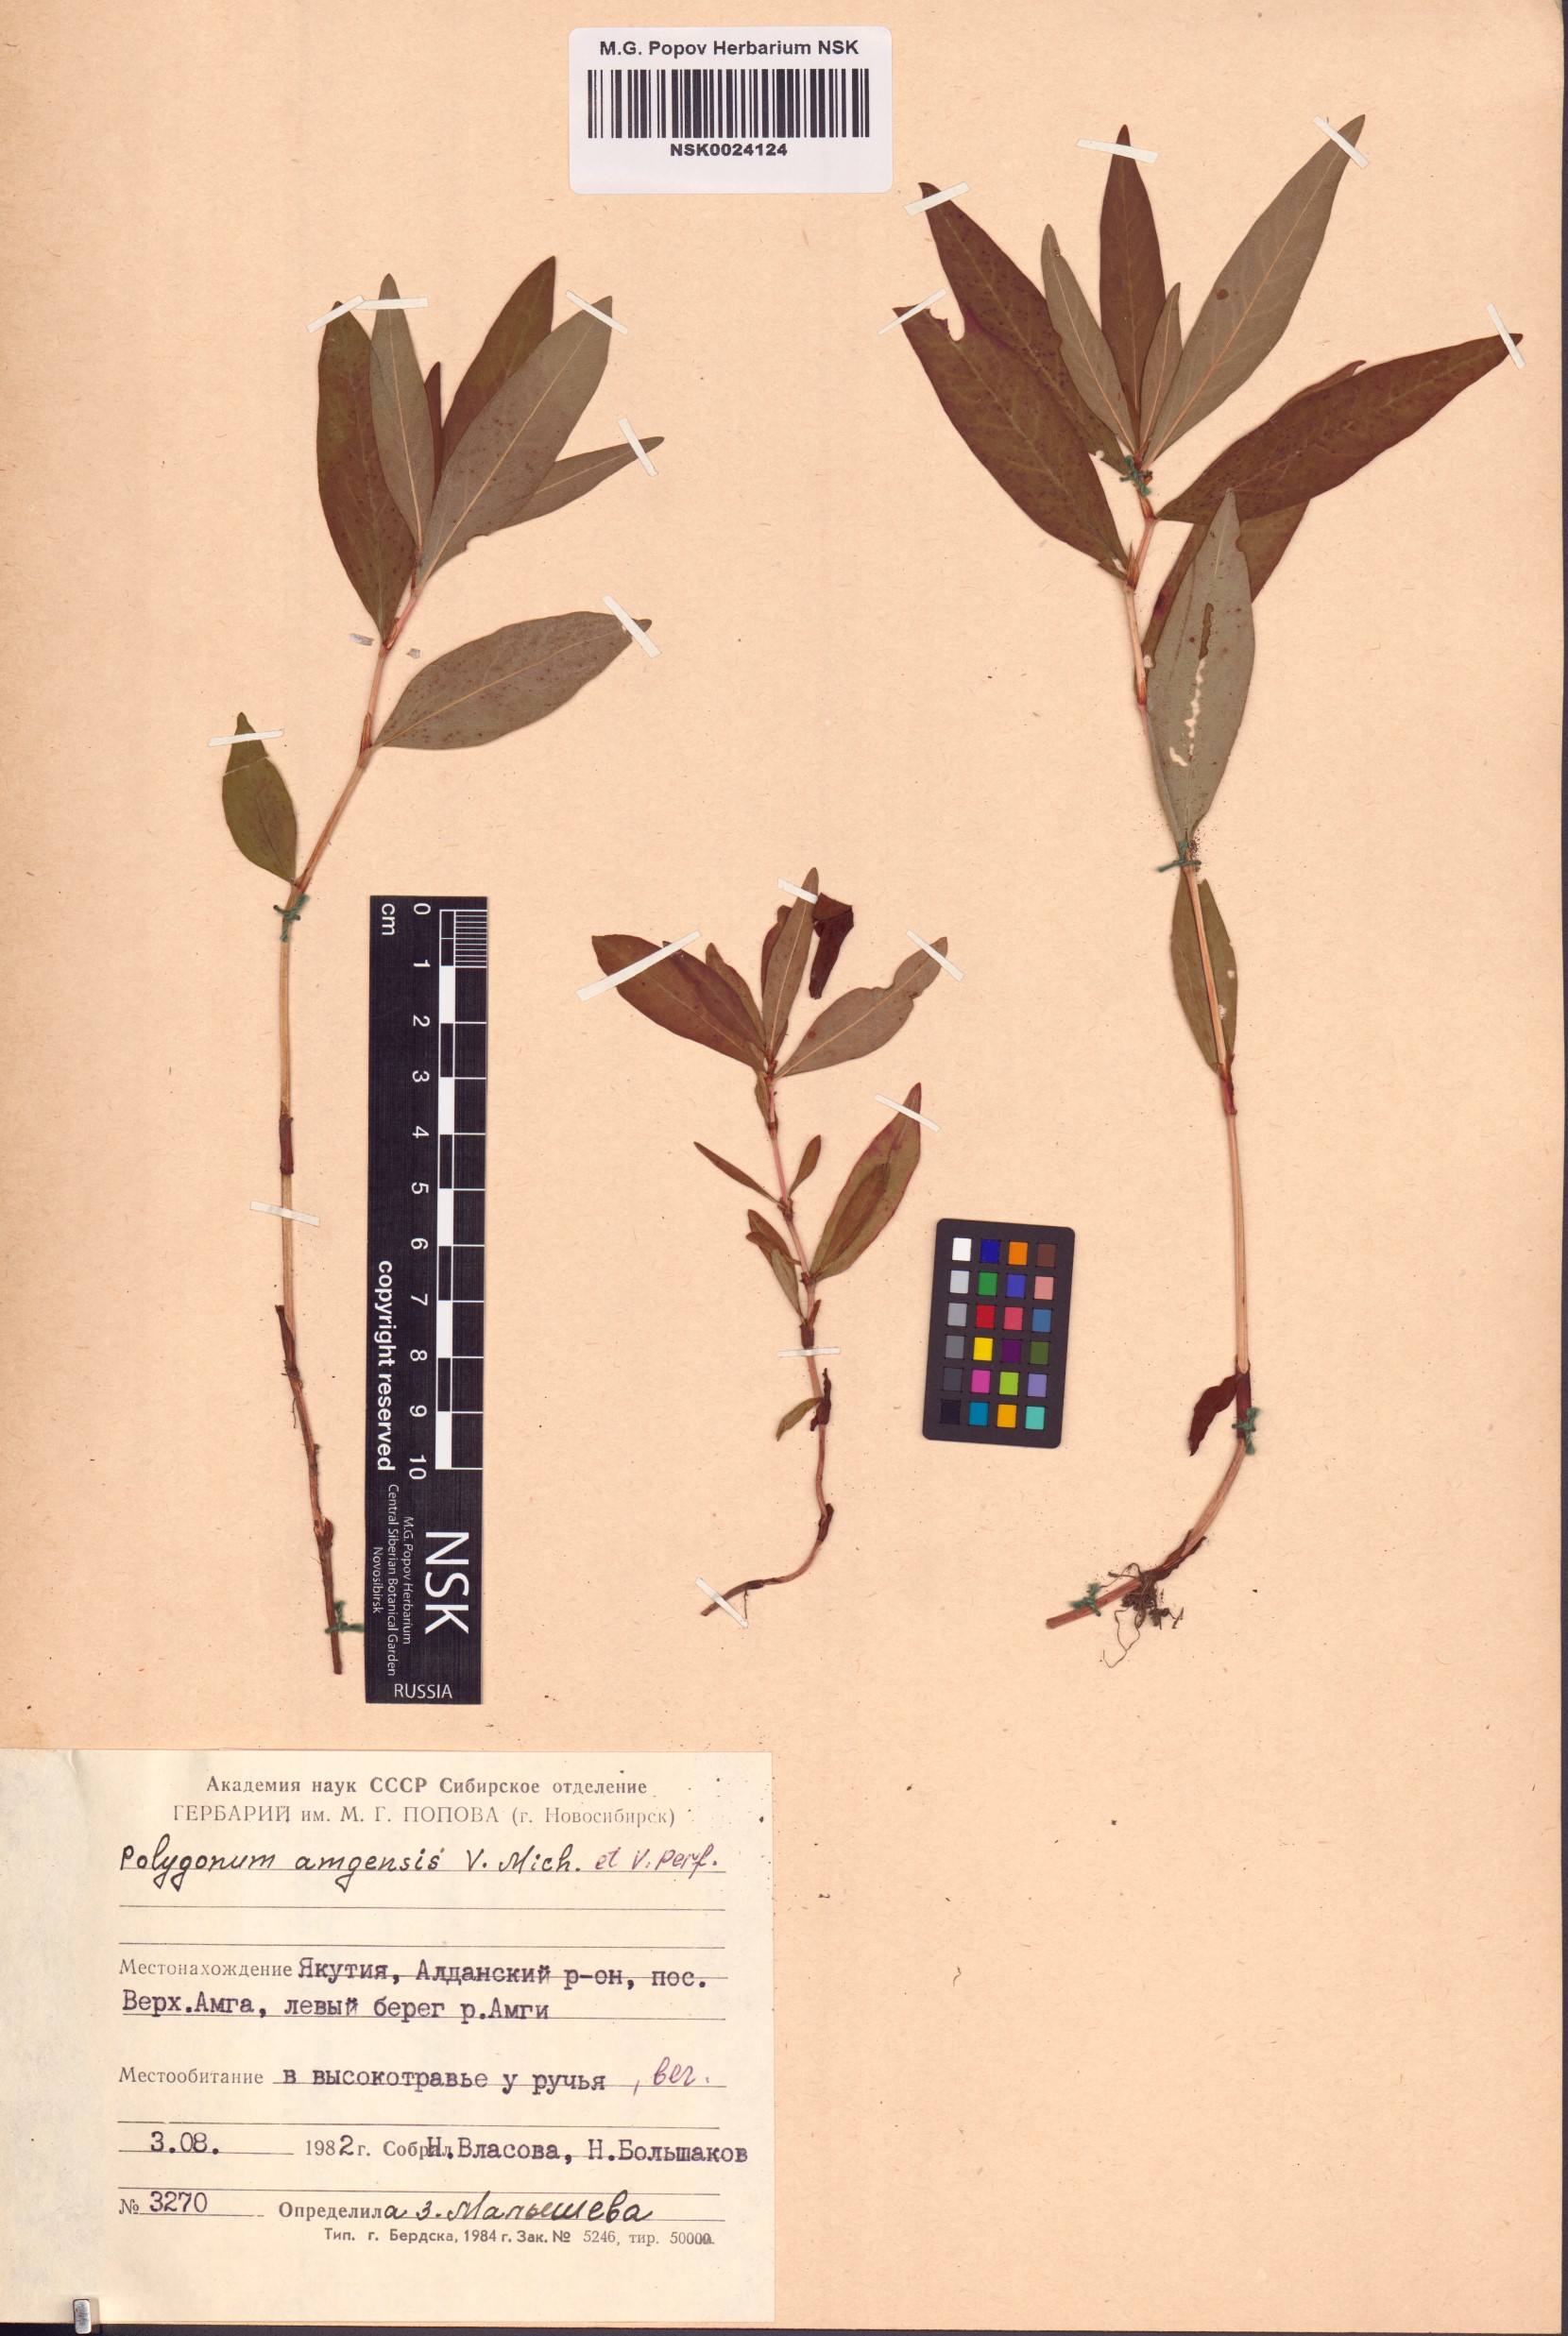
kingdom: Plantae
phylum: Tracheophyta
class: Magnoliopsida
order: Caryophyllales
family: Polygonaceae
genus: Polygonum
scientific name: Polygonum amgense
